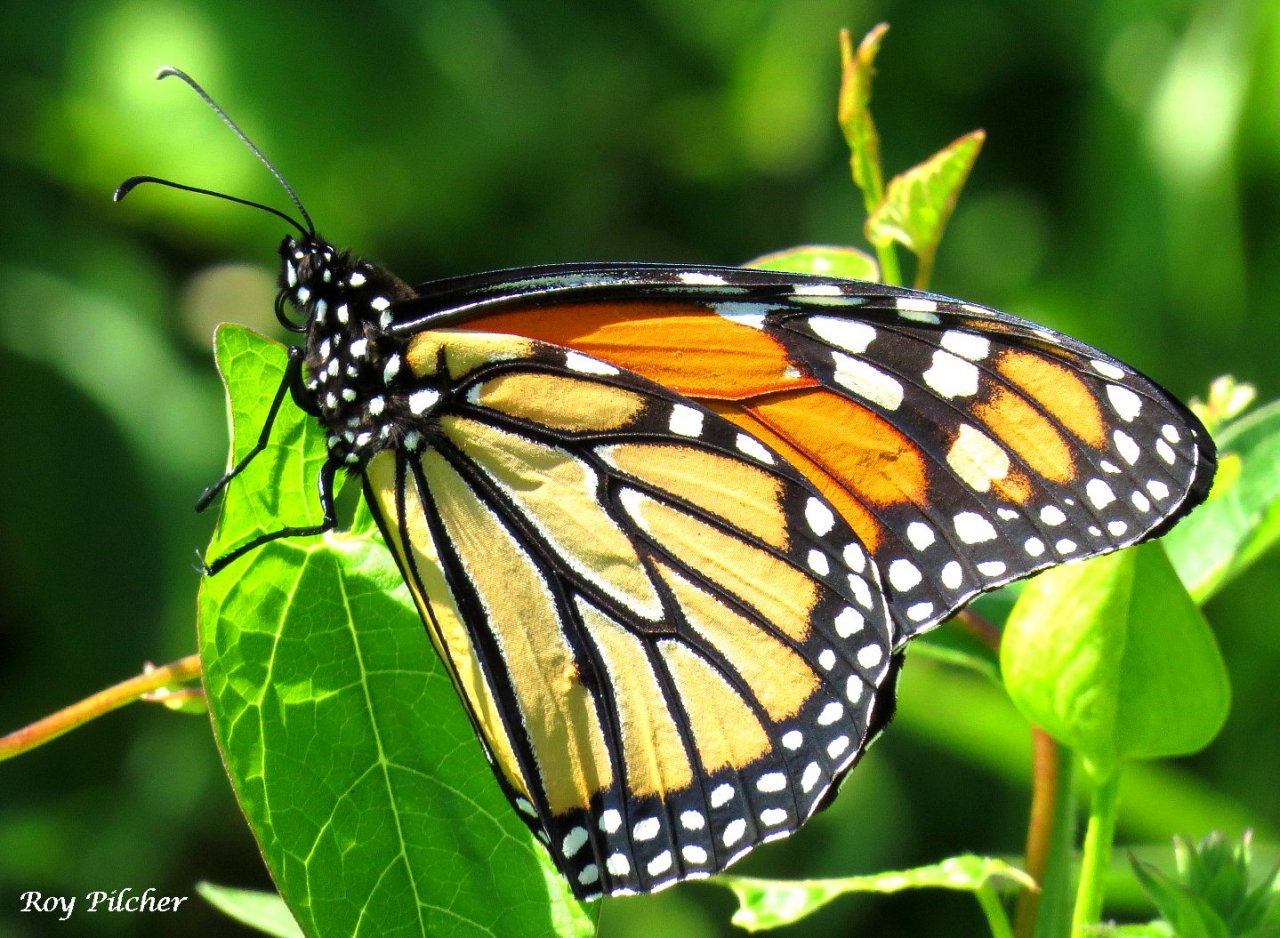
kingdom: Animalia
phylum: Arthropoda
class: Insecta
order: Lepidoptera
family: Nymphalidae
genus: Danaus
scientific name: Danaus plexippus
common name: Monarch
